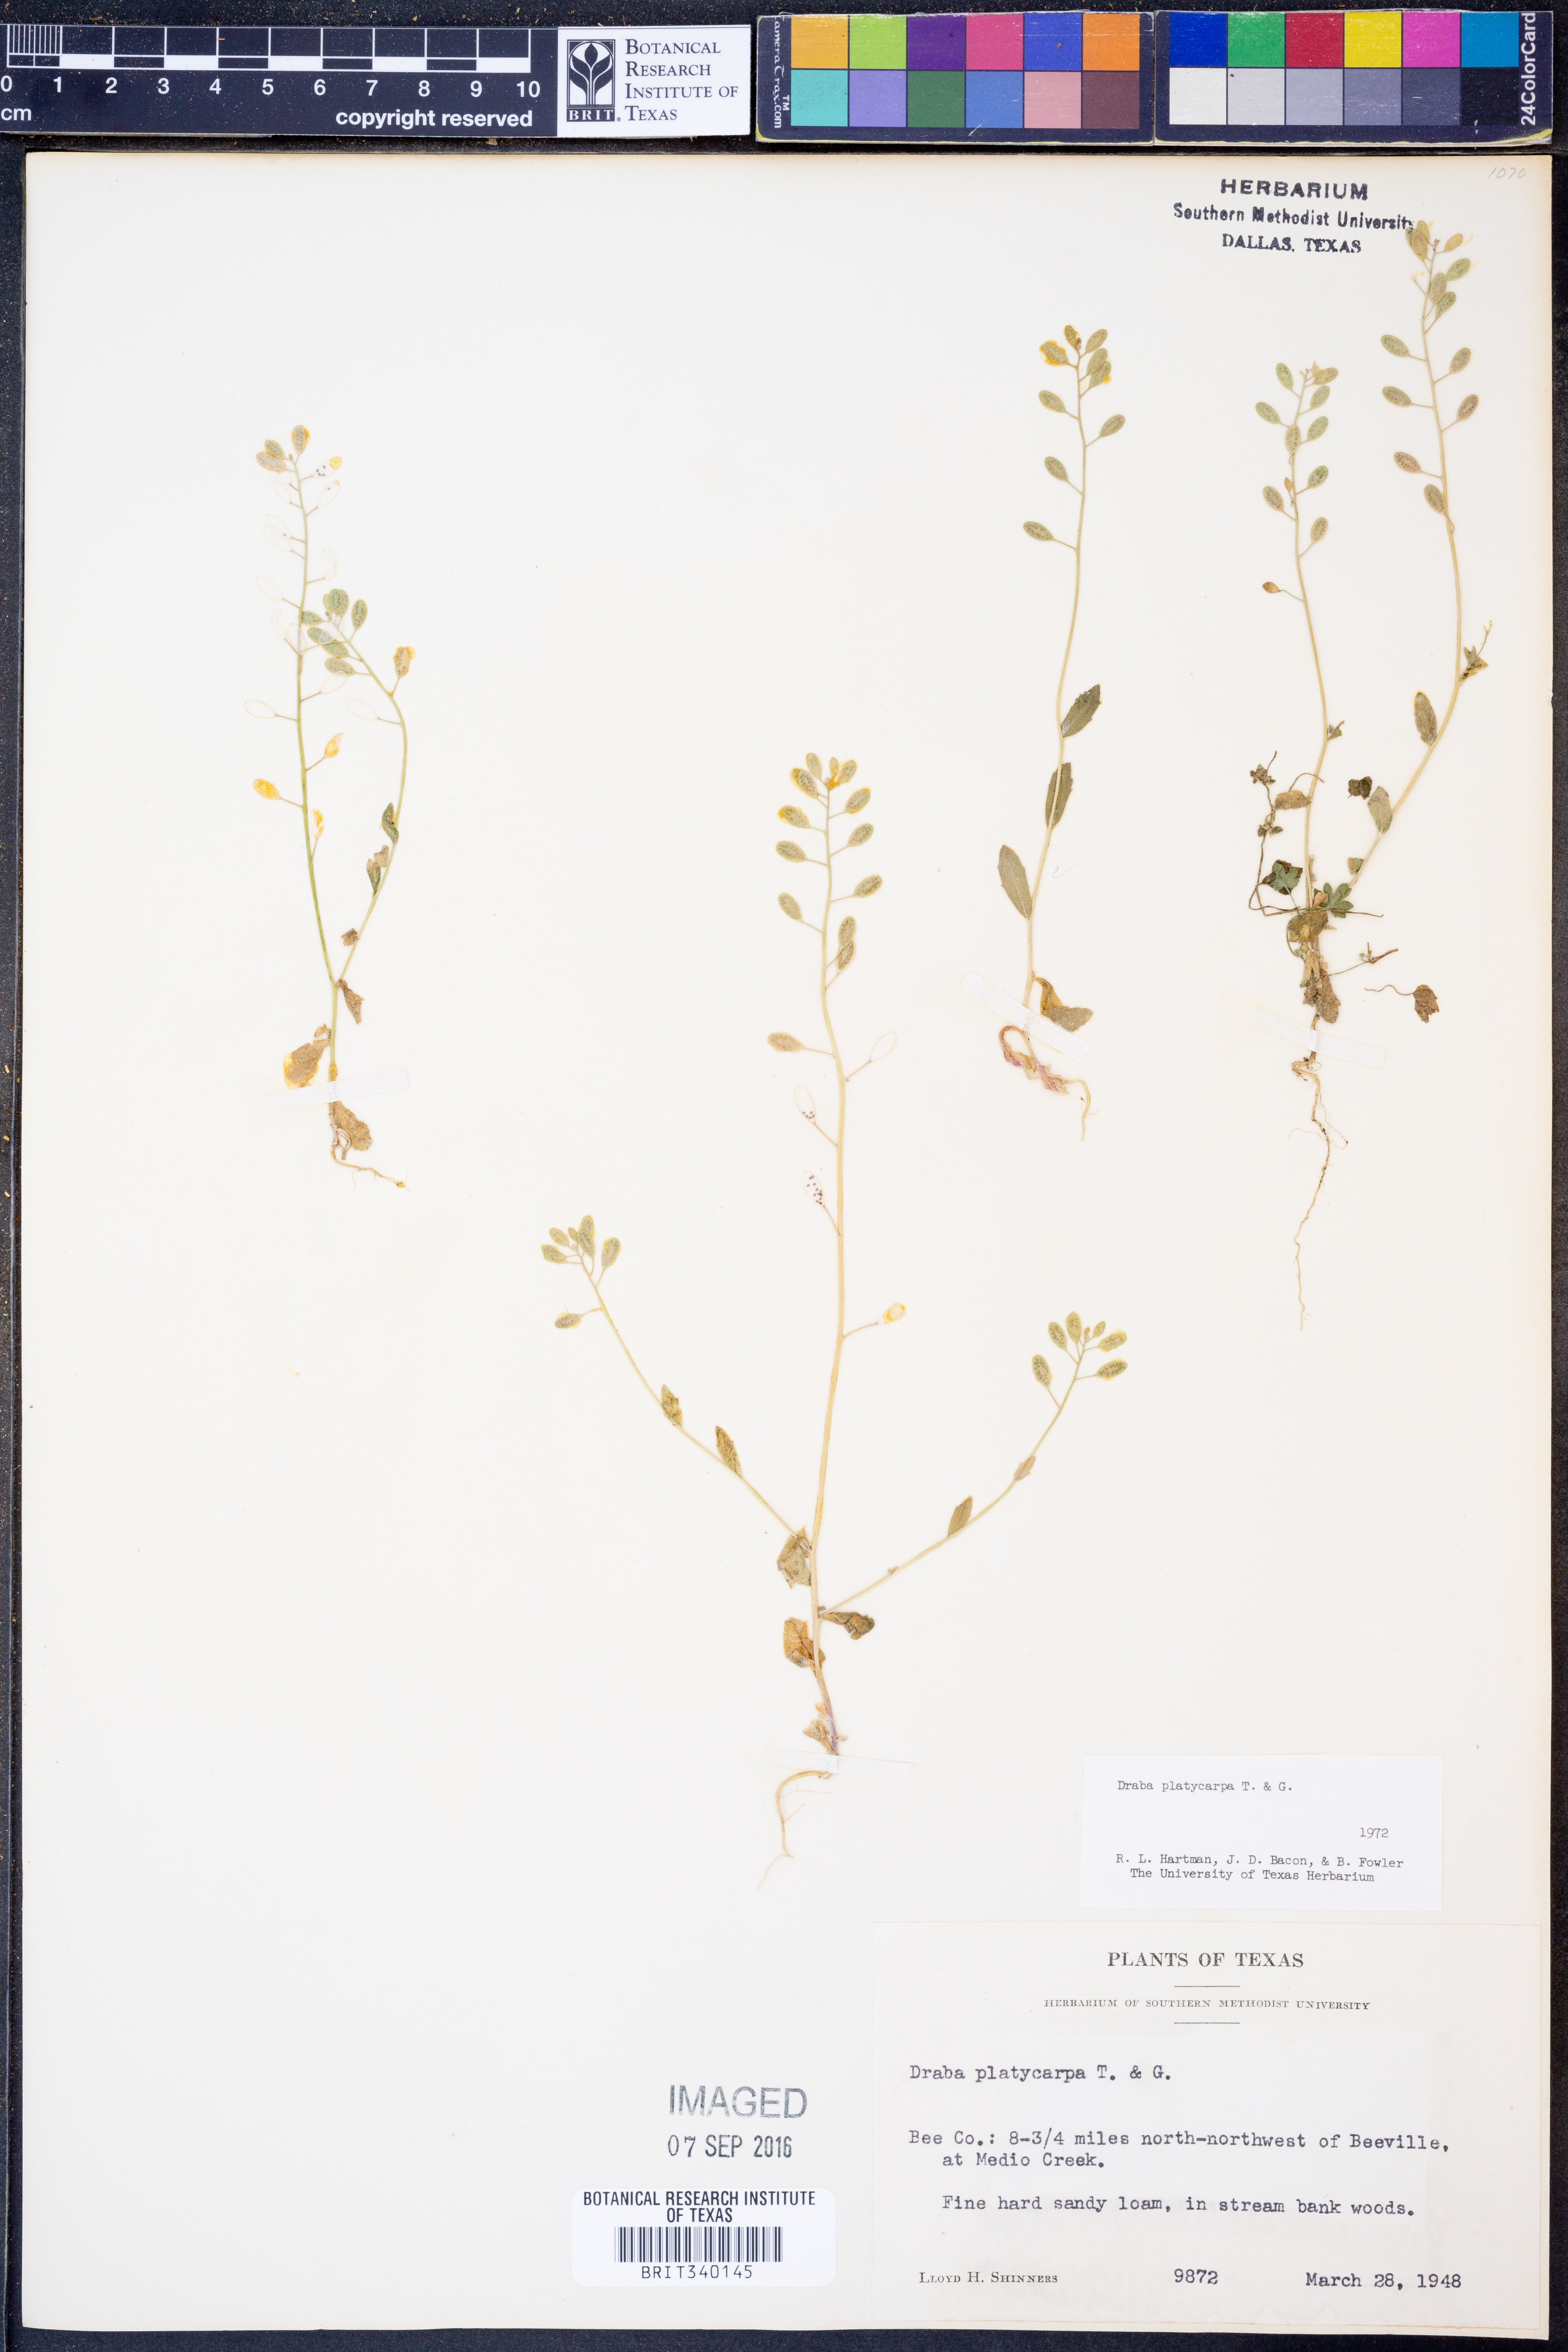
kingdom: Plantae
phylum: Tracheophyta
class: Magnoliopsida
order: Brassicales
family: Brassicaceae
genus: Tomostima
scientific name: Tomostima platycarpa
